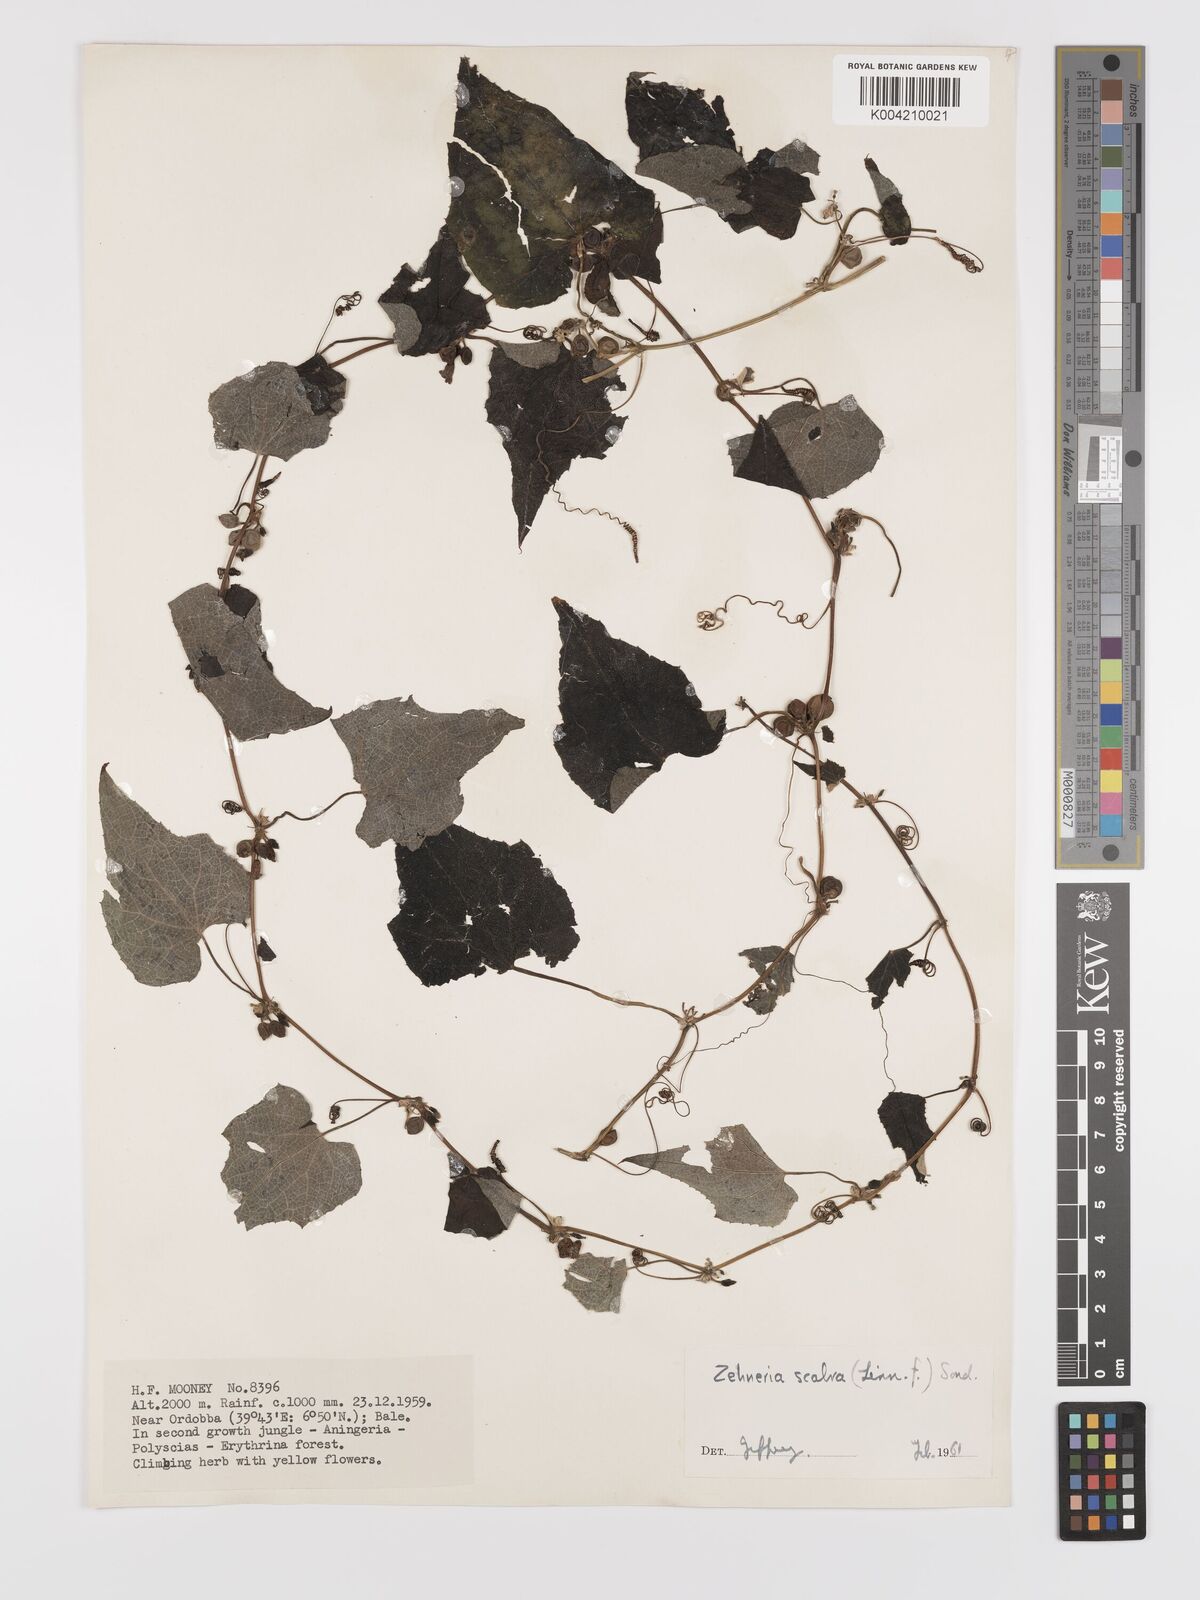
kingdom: Plantae
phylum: Tracheophyta
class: Magnoliopsida
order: Cucurbitales
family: Cucurbitaceae
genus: Zehneria
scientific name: Zehneria scabra
